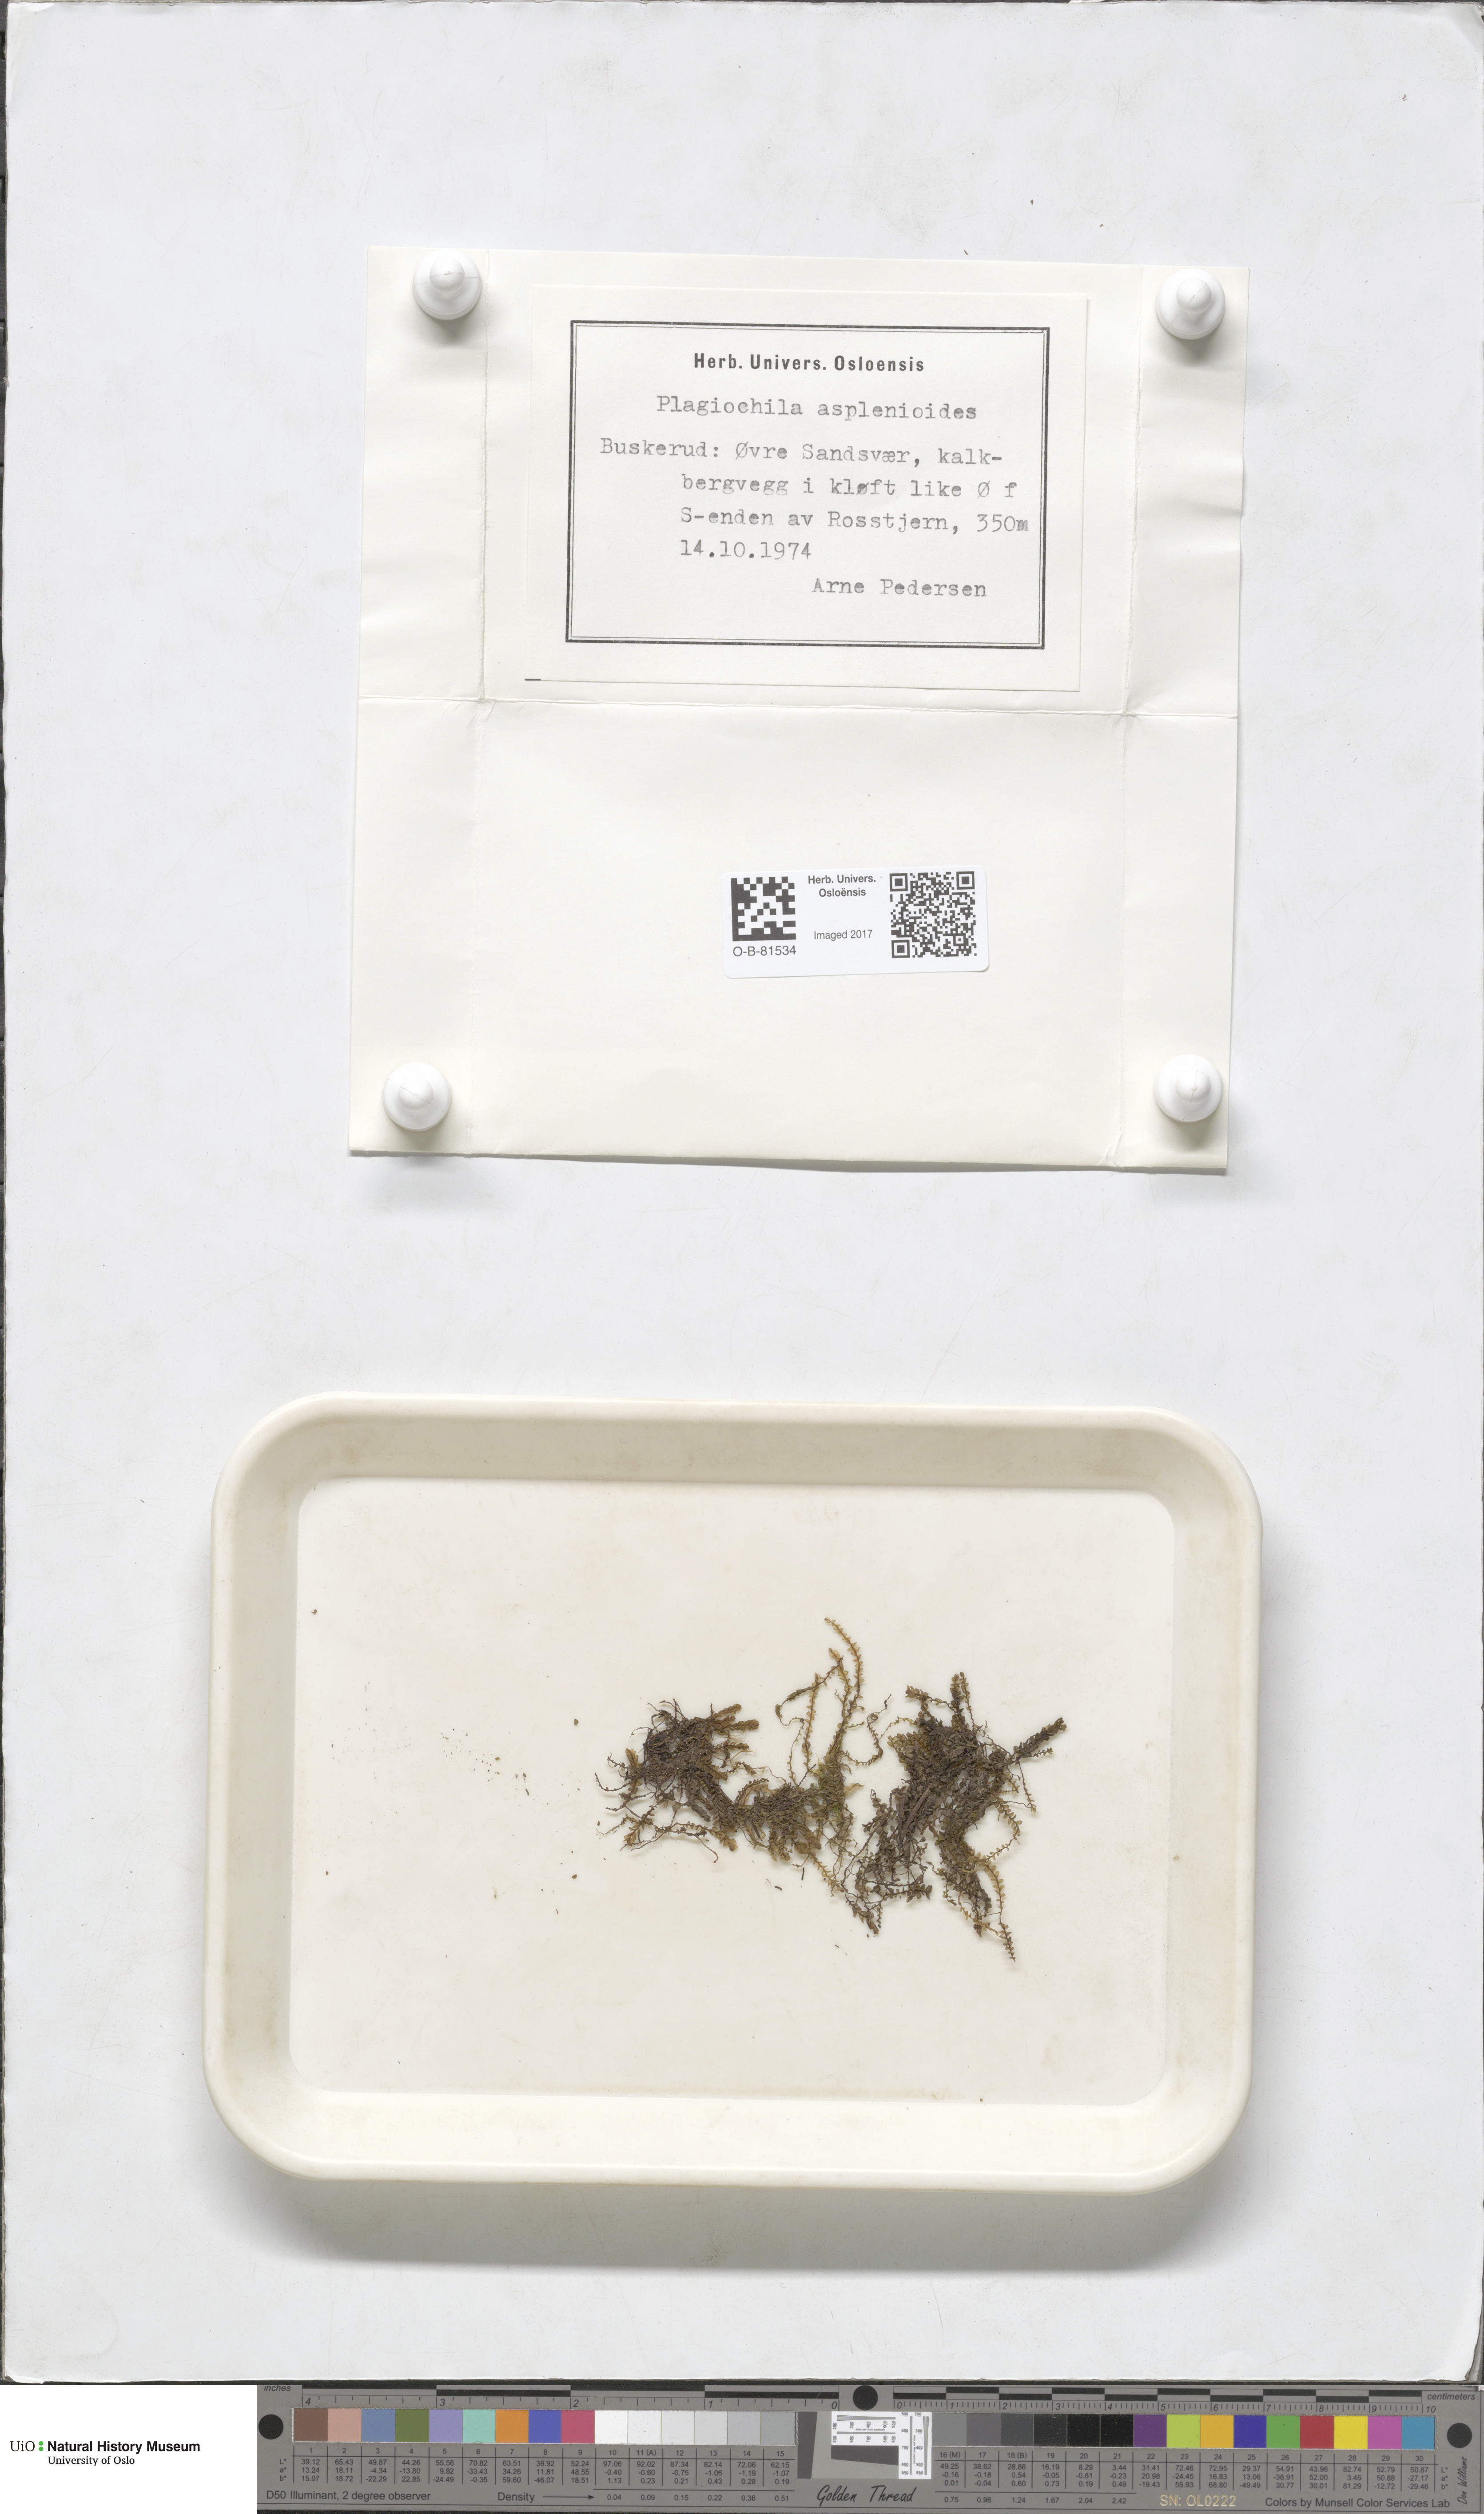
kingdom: Plantae
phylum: Marchantiophyta
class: Jungermanniopsida
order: Jungermanniales
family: Plagiochilaceae
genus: Plagiochila
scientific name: Plagiochila asplenioides
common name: Greater featherwort
